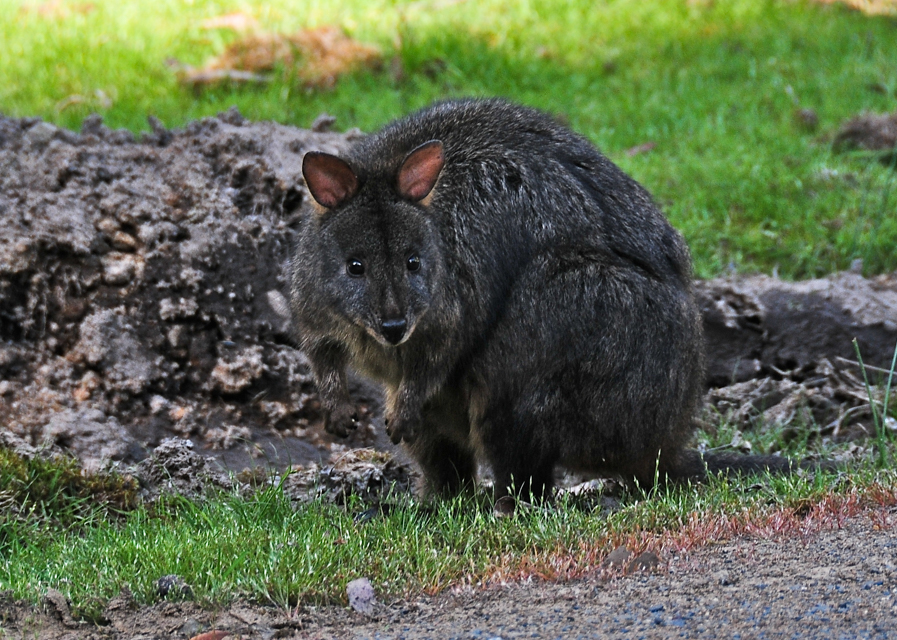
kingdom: Animalia
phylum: Chordata
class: Mammalia
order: Diprotodontia
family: Macropodidae
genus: Thylogale
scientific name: Thylogale billardierii
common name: Tasmanian pademelon
